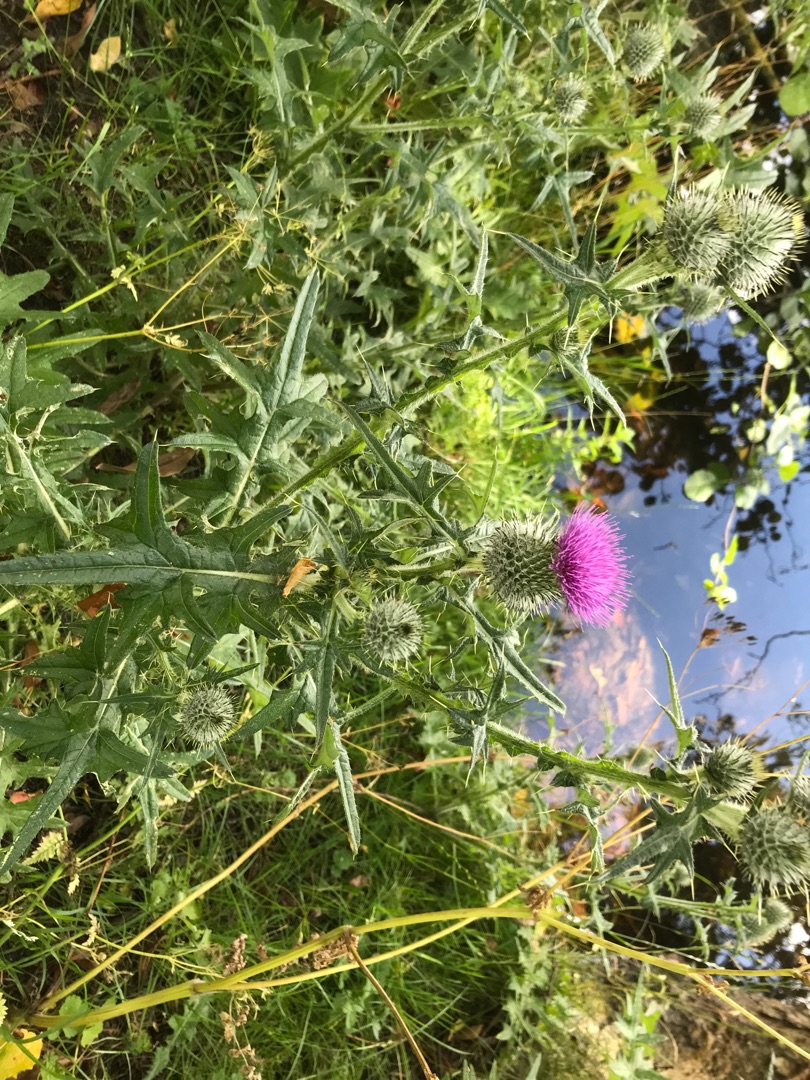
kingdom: Plantae
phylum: Tracheophyta
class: Magnoliopsida
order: Asterales
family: Asteraceae
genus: Cirsium
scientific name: Cirsium vulgare
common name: Horse-tidsel
